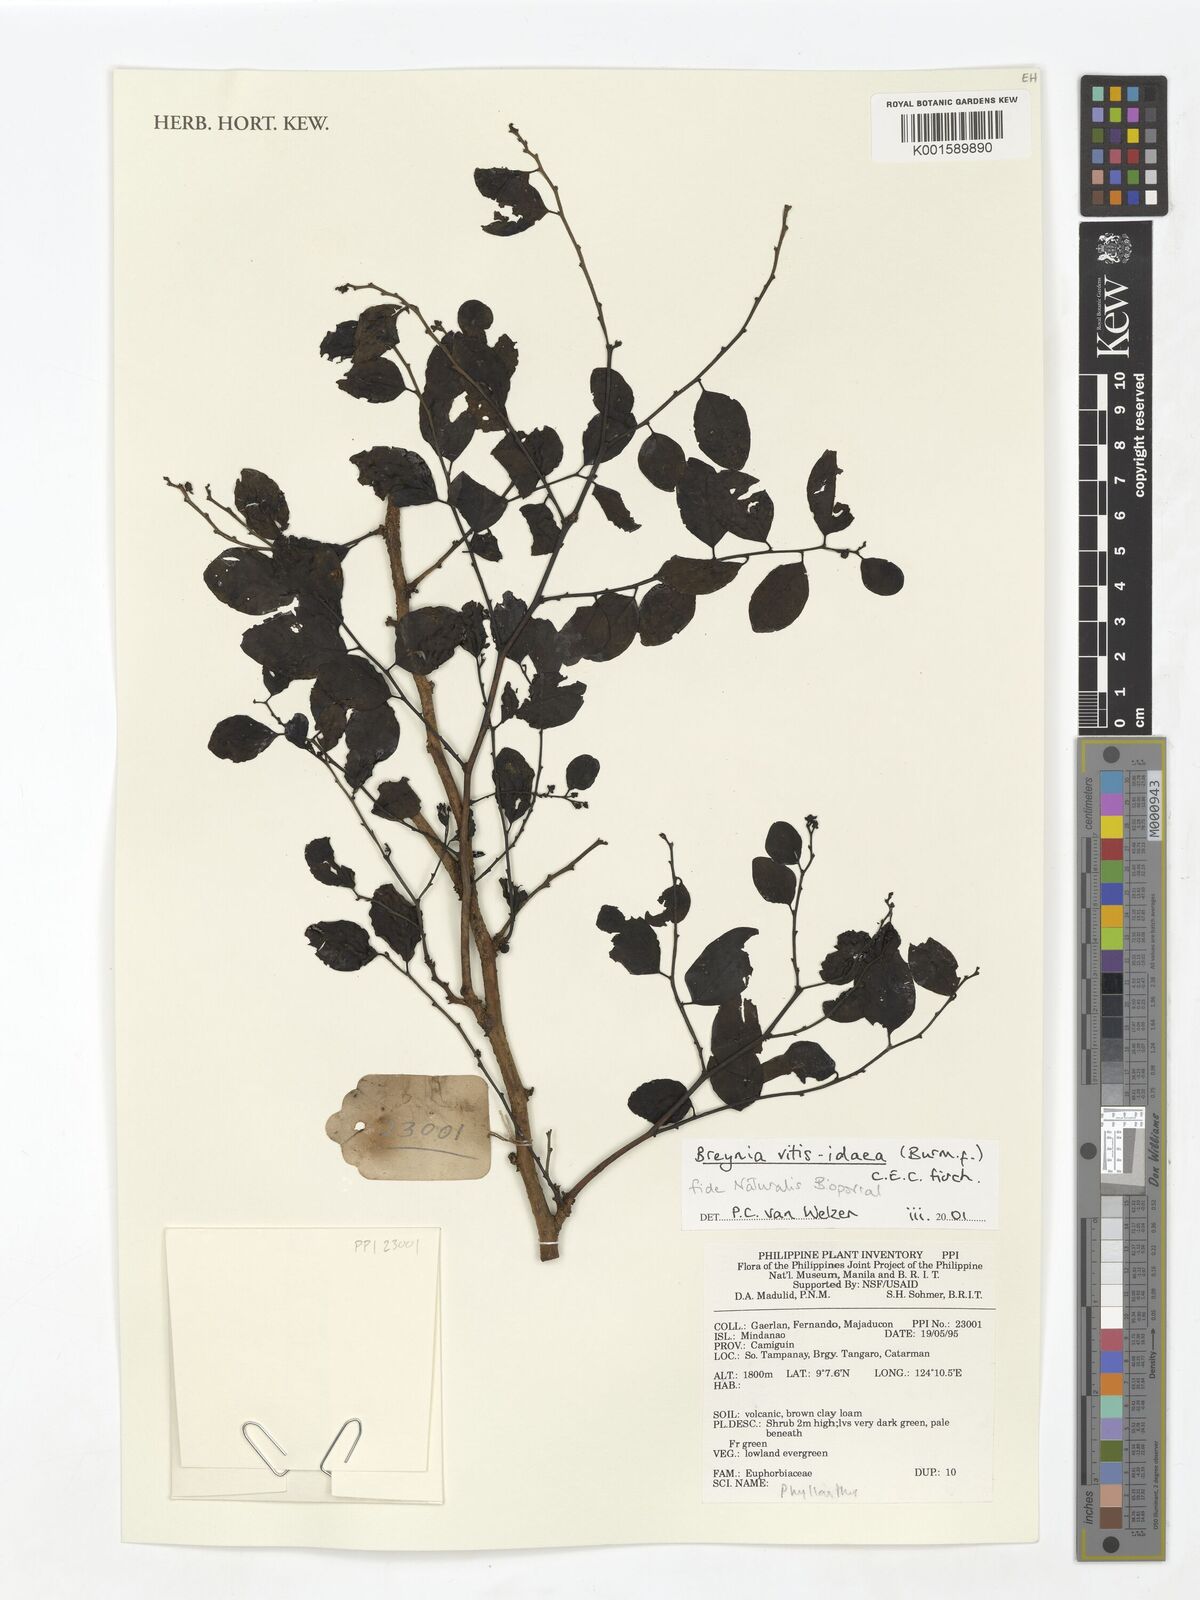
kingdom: Plantae
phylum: Tracheophyta
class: Magnoliopsida
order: Malpighiales
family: Phyllanthaceae
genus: Breynia
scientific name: Breynia vitis-idaea
